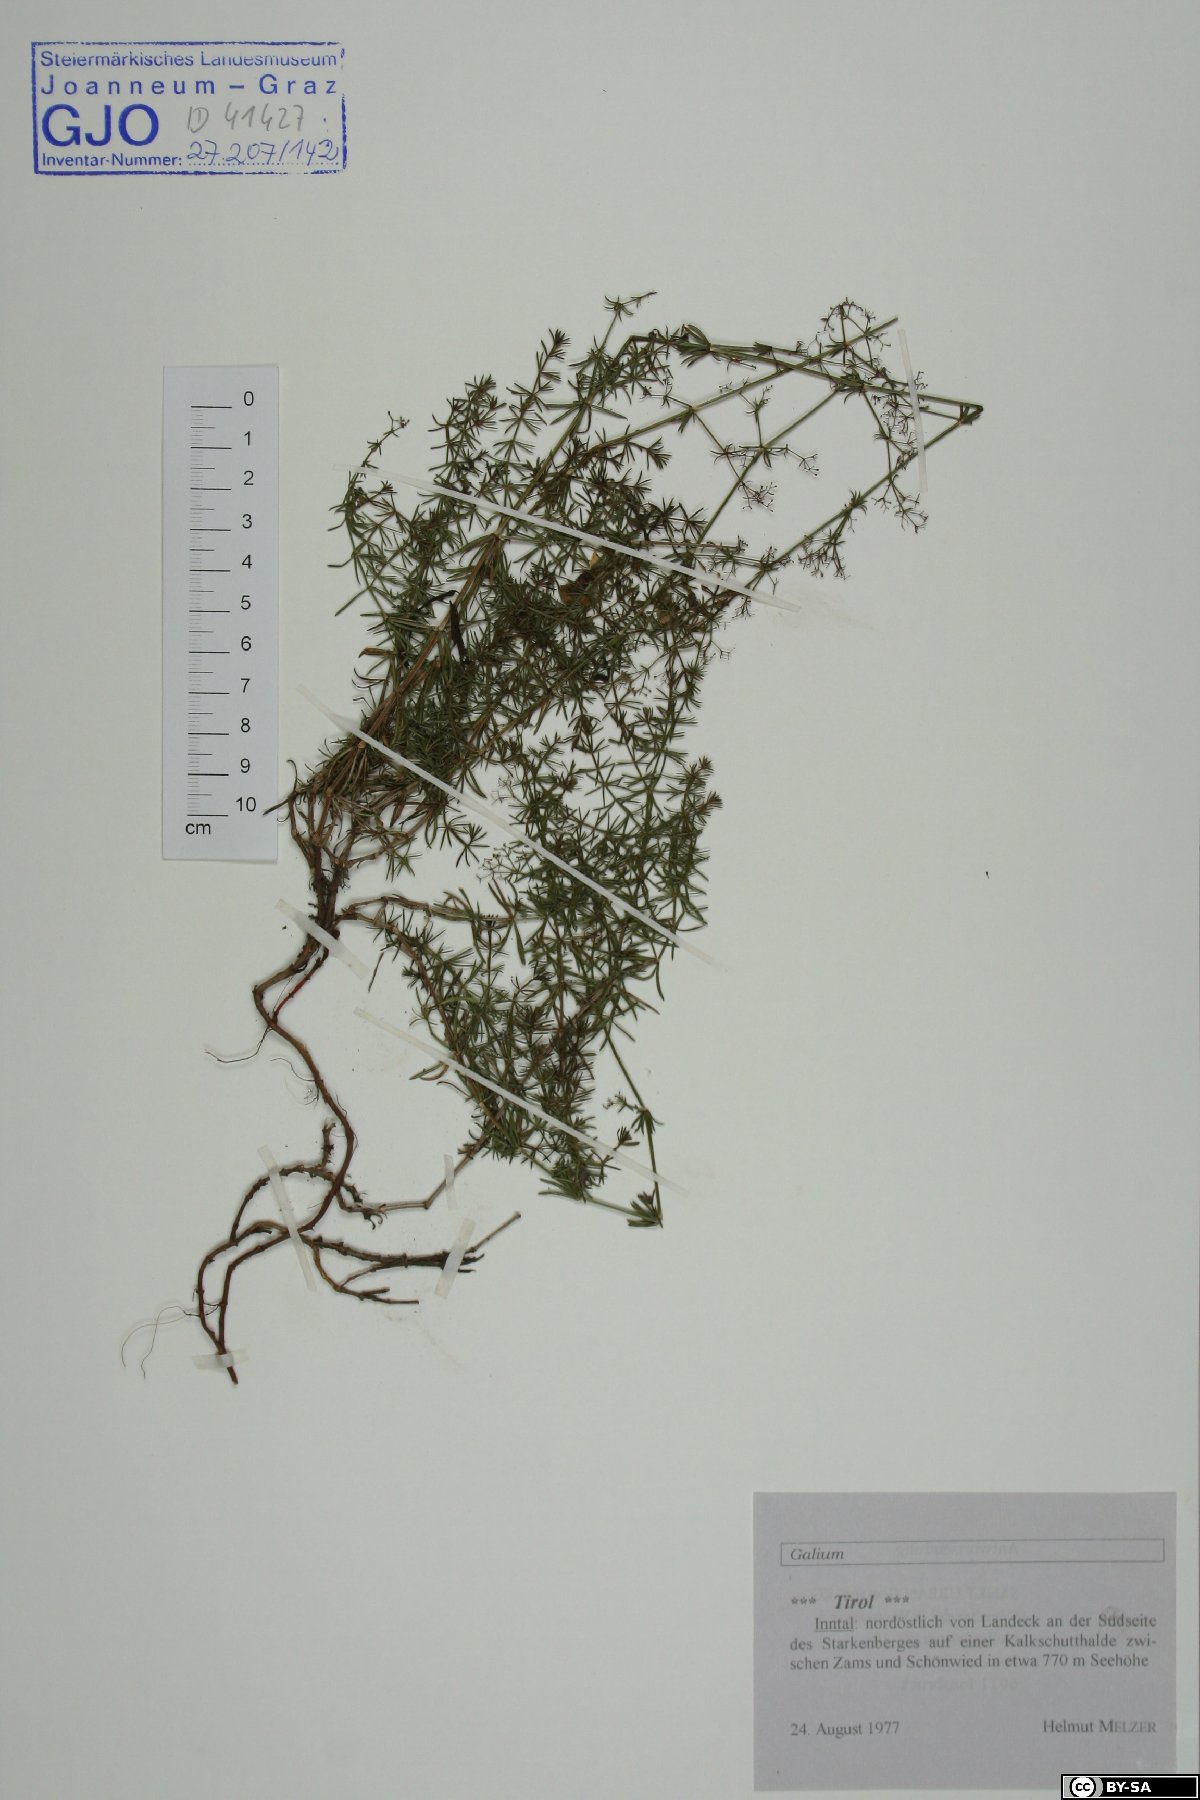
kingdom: Plantae
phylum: Tracheophyta
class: Magnoliopsida
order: Gentianales
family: Rubiaceae
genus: Galium
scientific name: Galium
